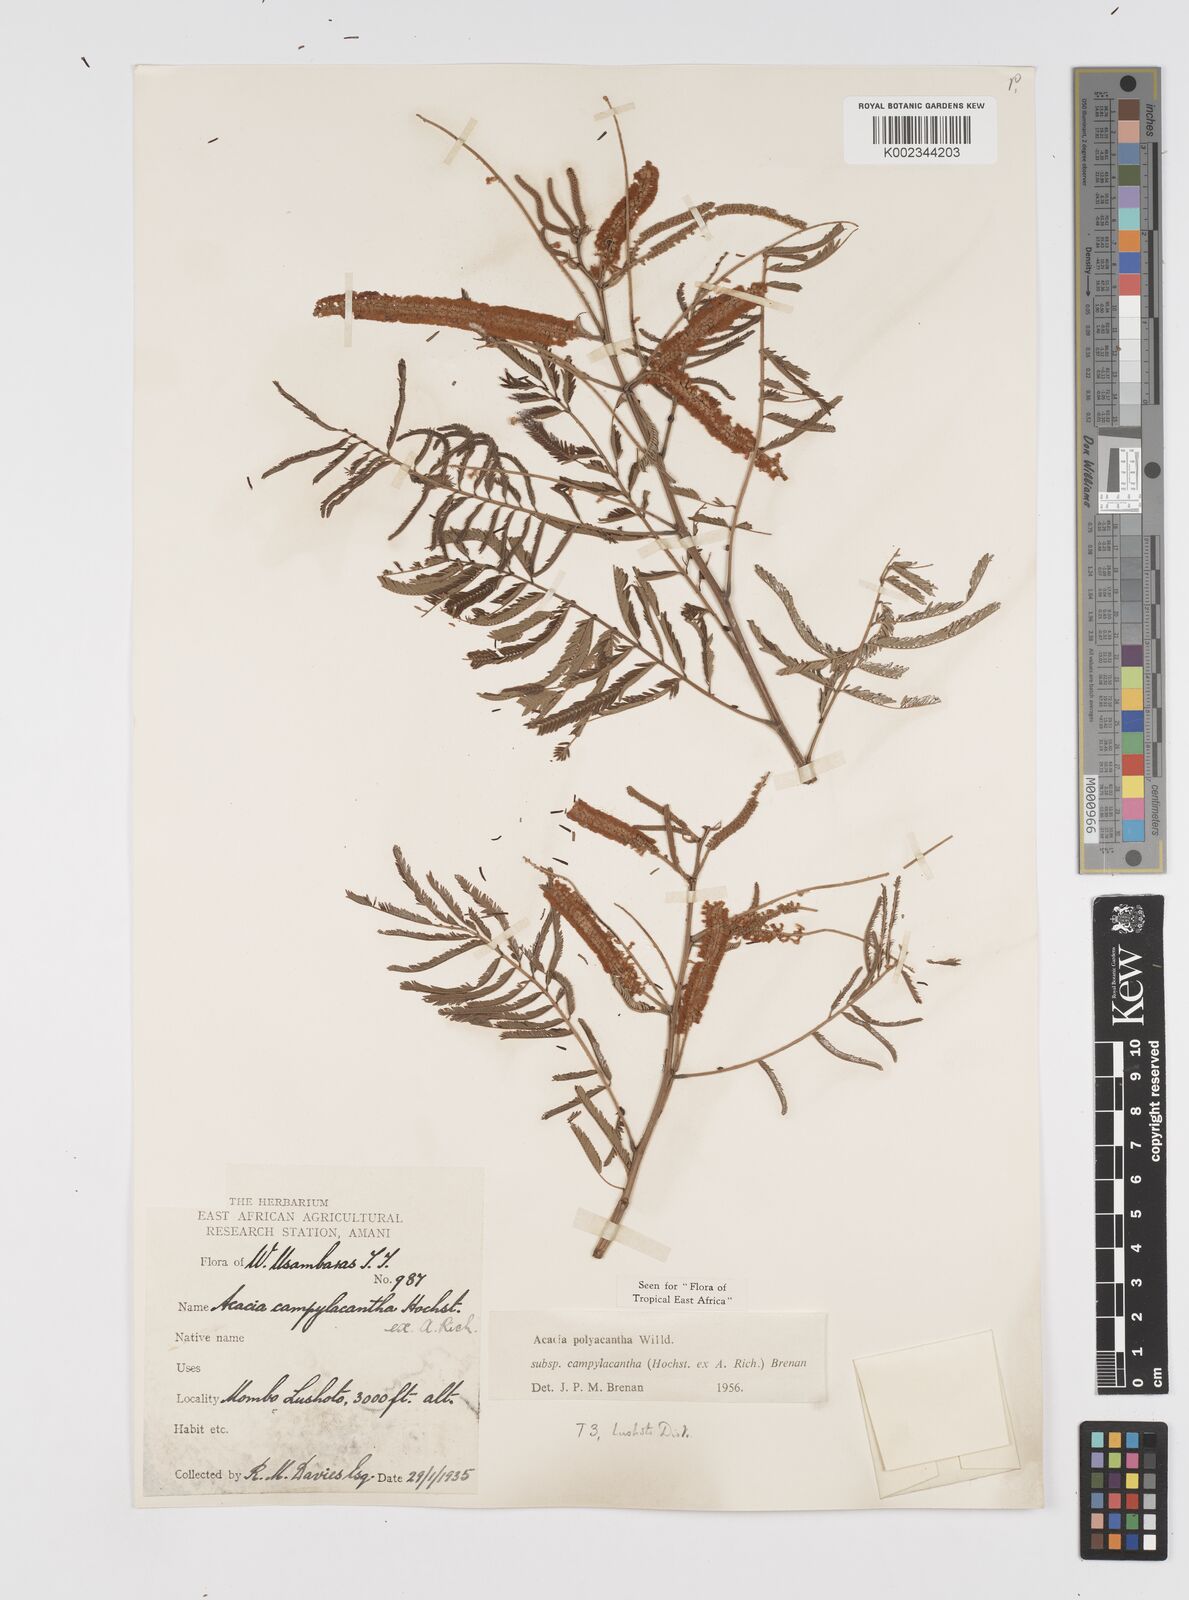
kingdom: Plantae
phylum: Tracheophyta
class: Magnoliopsida
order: Fabales
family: Fabaceae
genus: Senegalia
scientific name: Senegalia polyacantha
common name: Whitethorn
